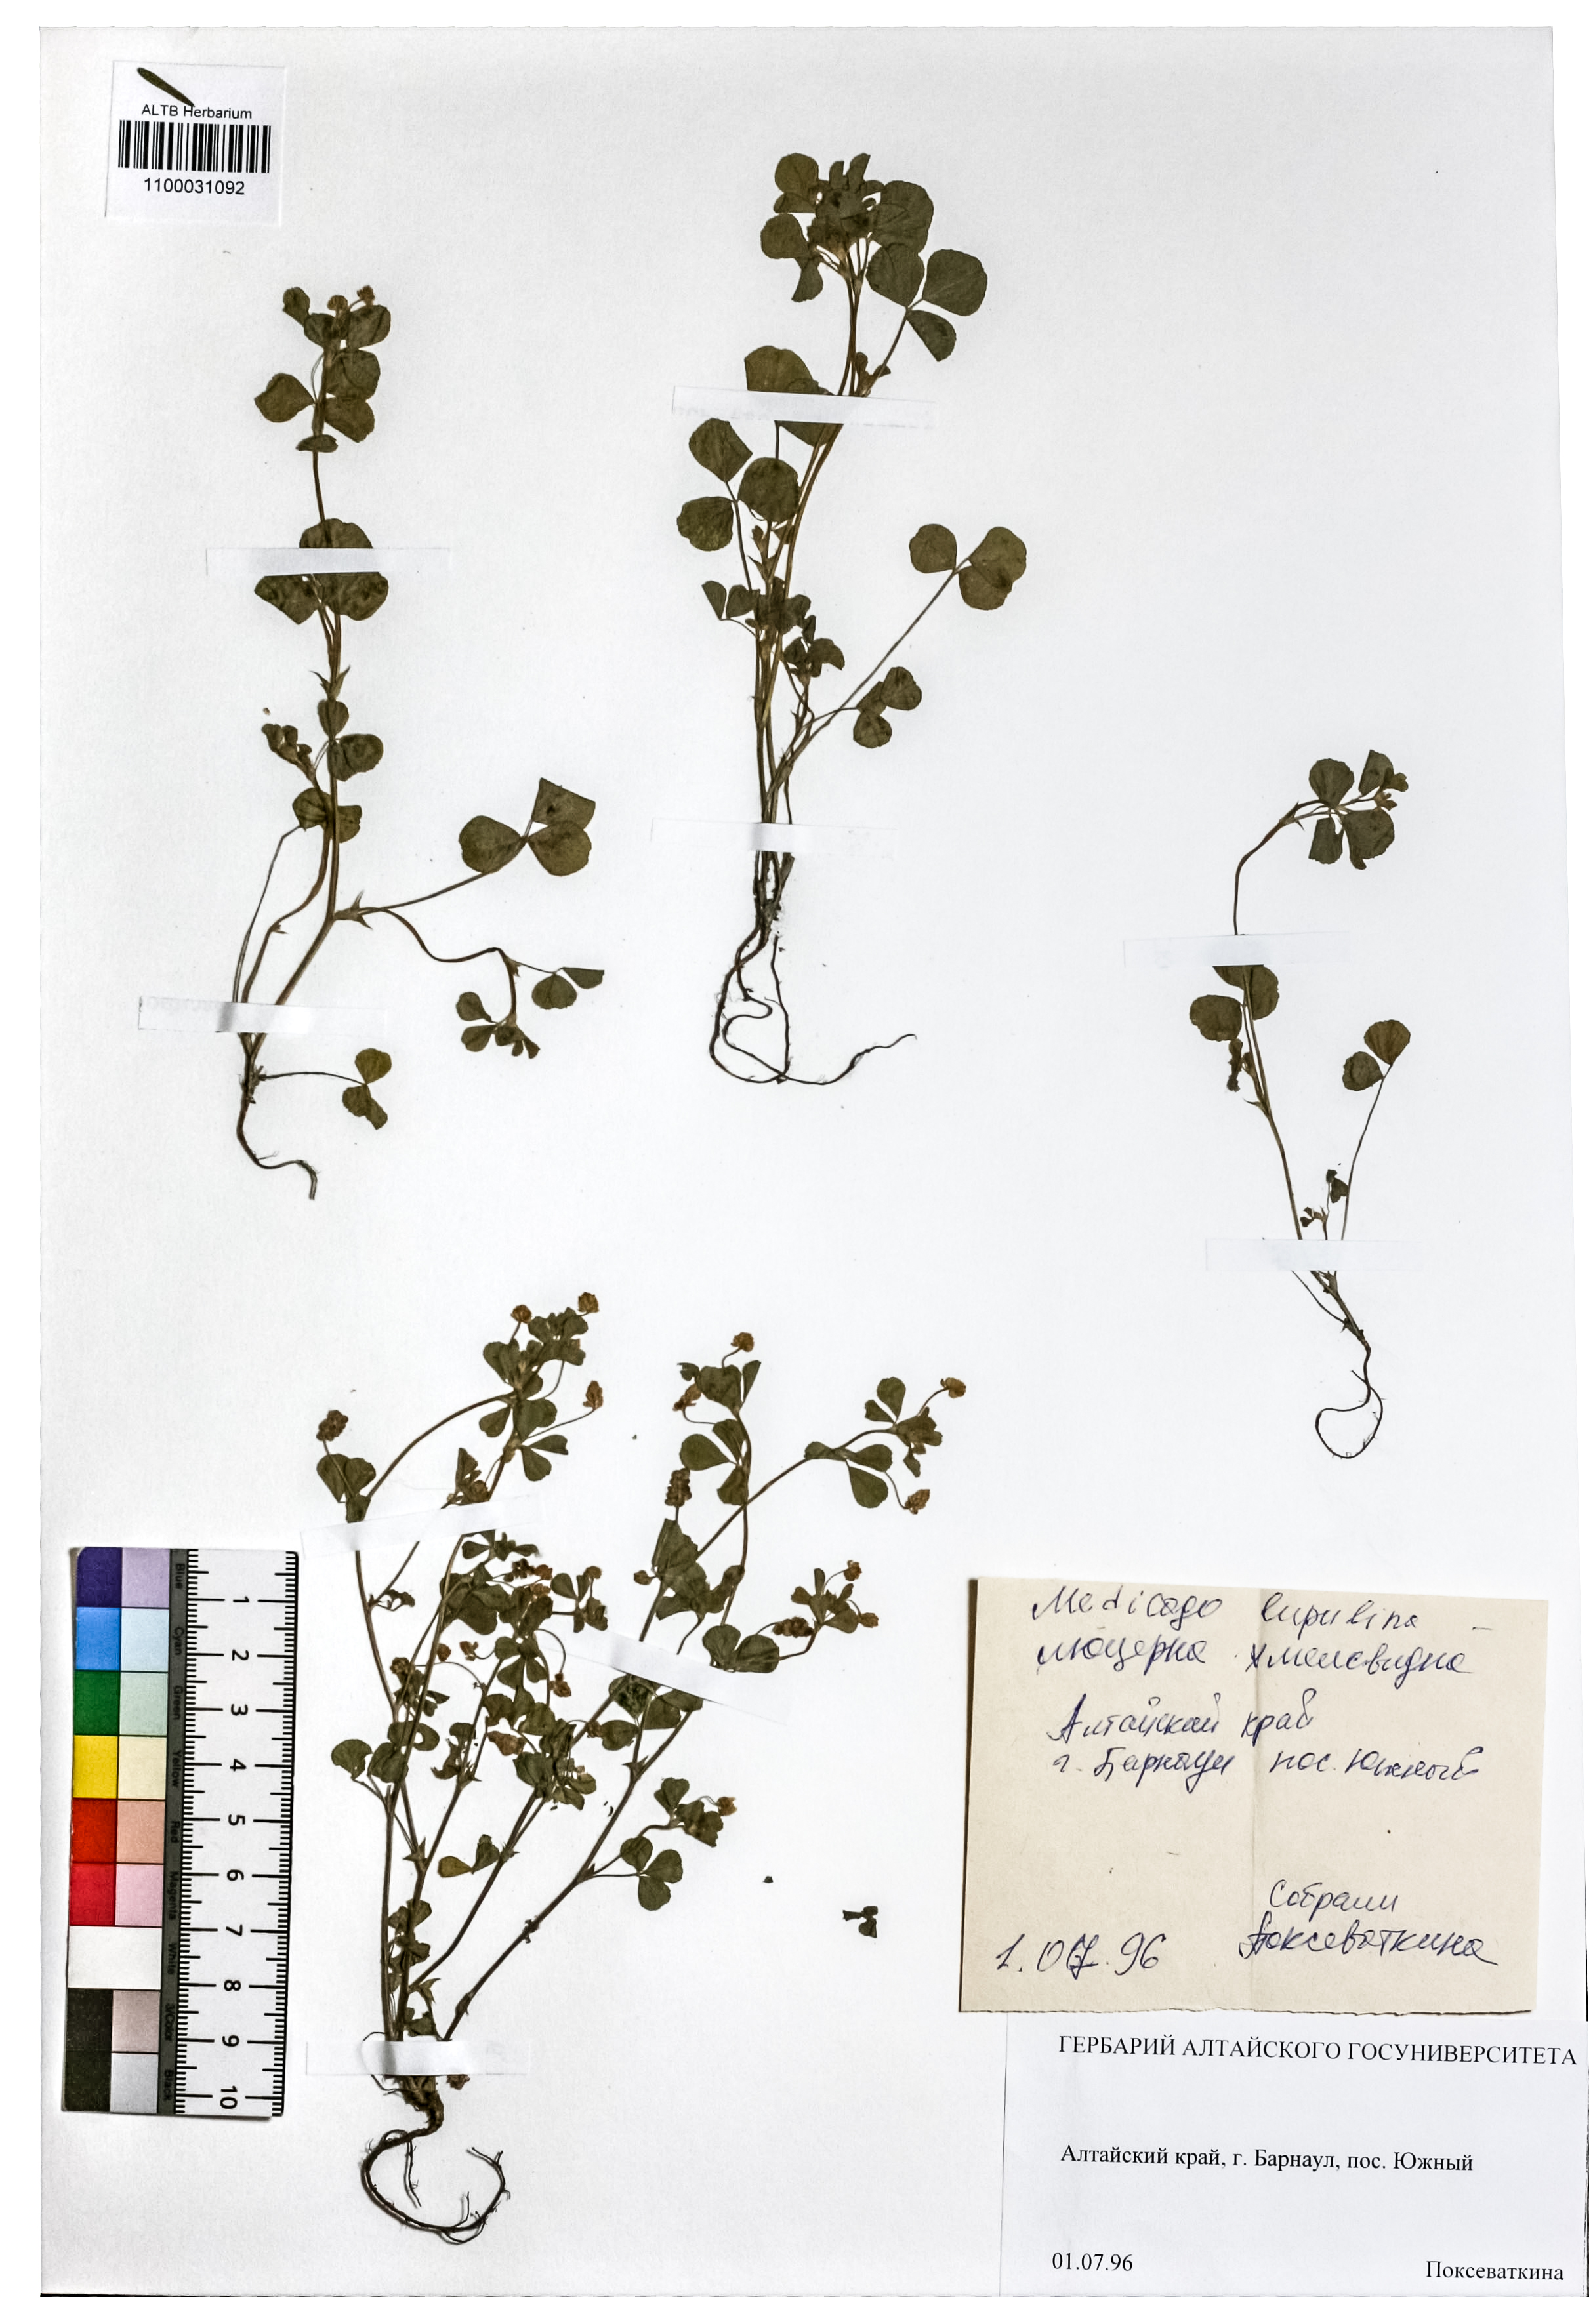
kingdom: Plantae
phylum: Tracheophyta
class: Magnoliopsida
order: Fabales
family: Fabaceae
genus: Medicago
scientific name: Medicago lupulina
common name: Black medick
